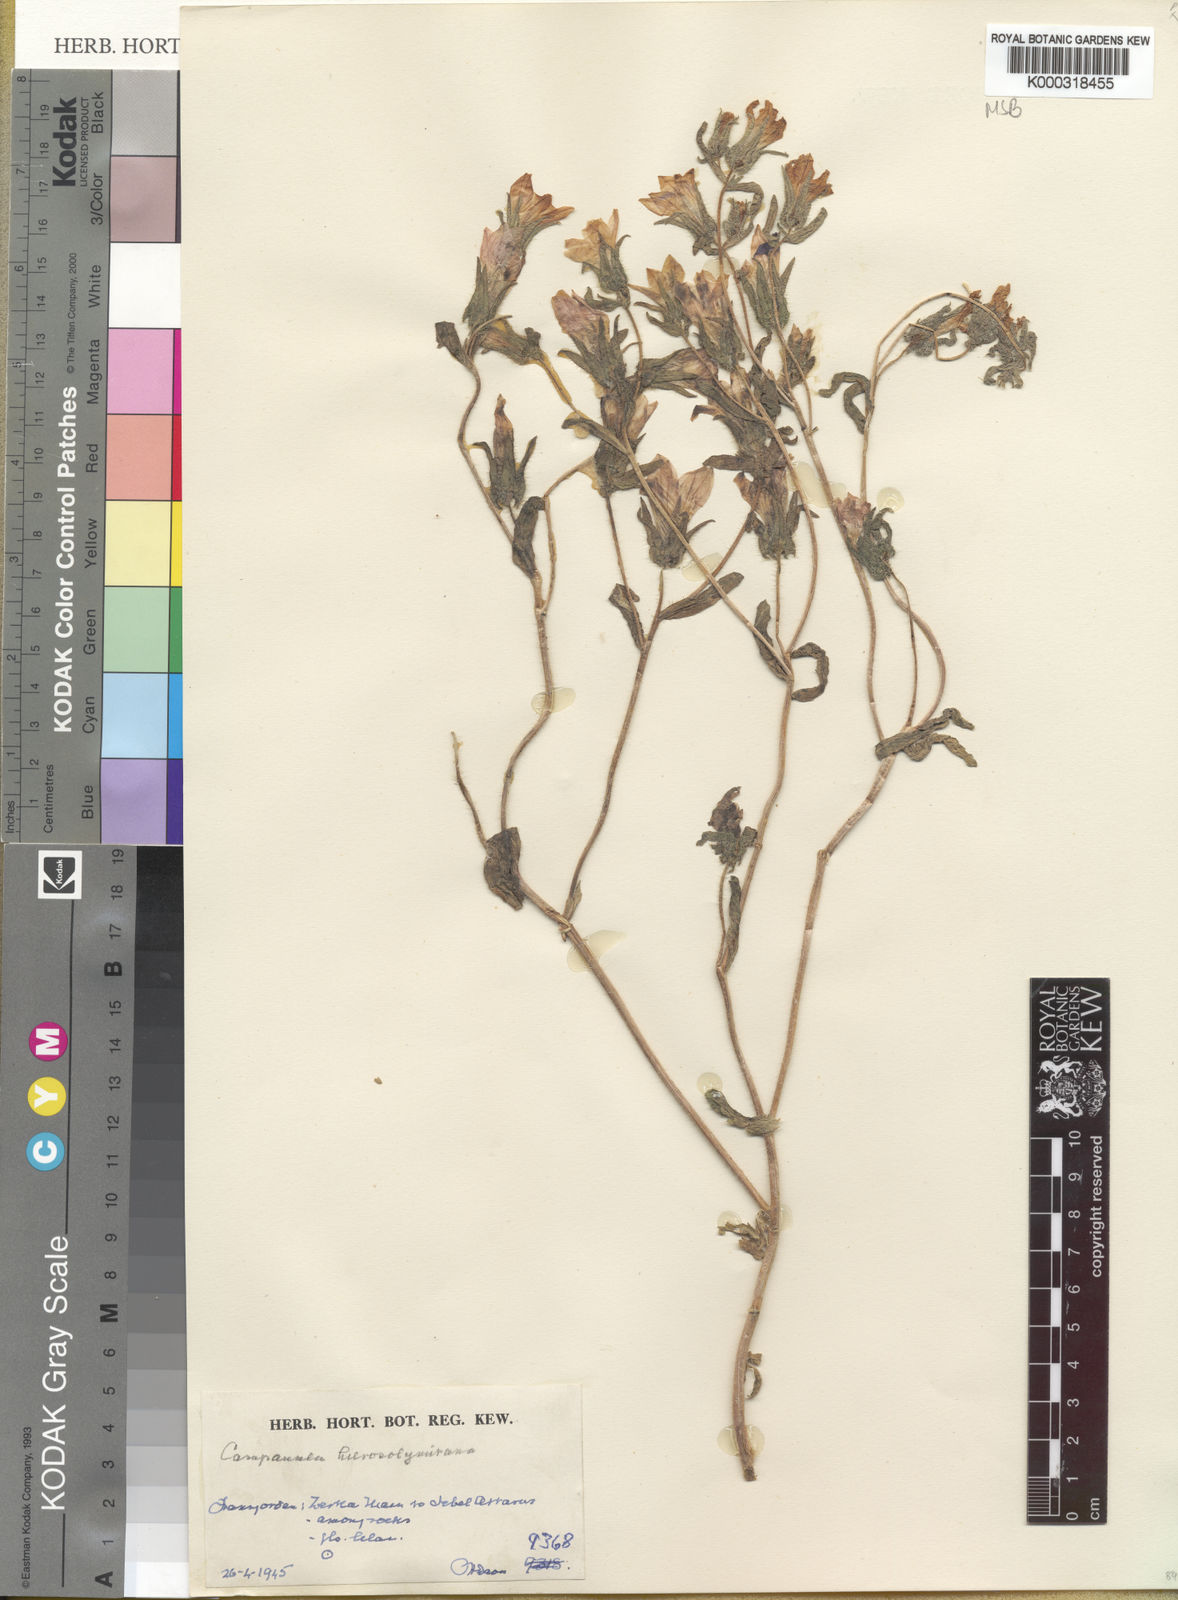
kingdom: Plantae
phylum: Tracheophyta
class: Magnoliopsida
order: Asterales
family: Campanulaceae
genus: Campanula
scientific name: Campanula hierosolymitana
